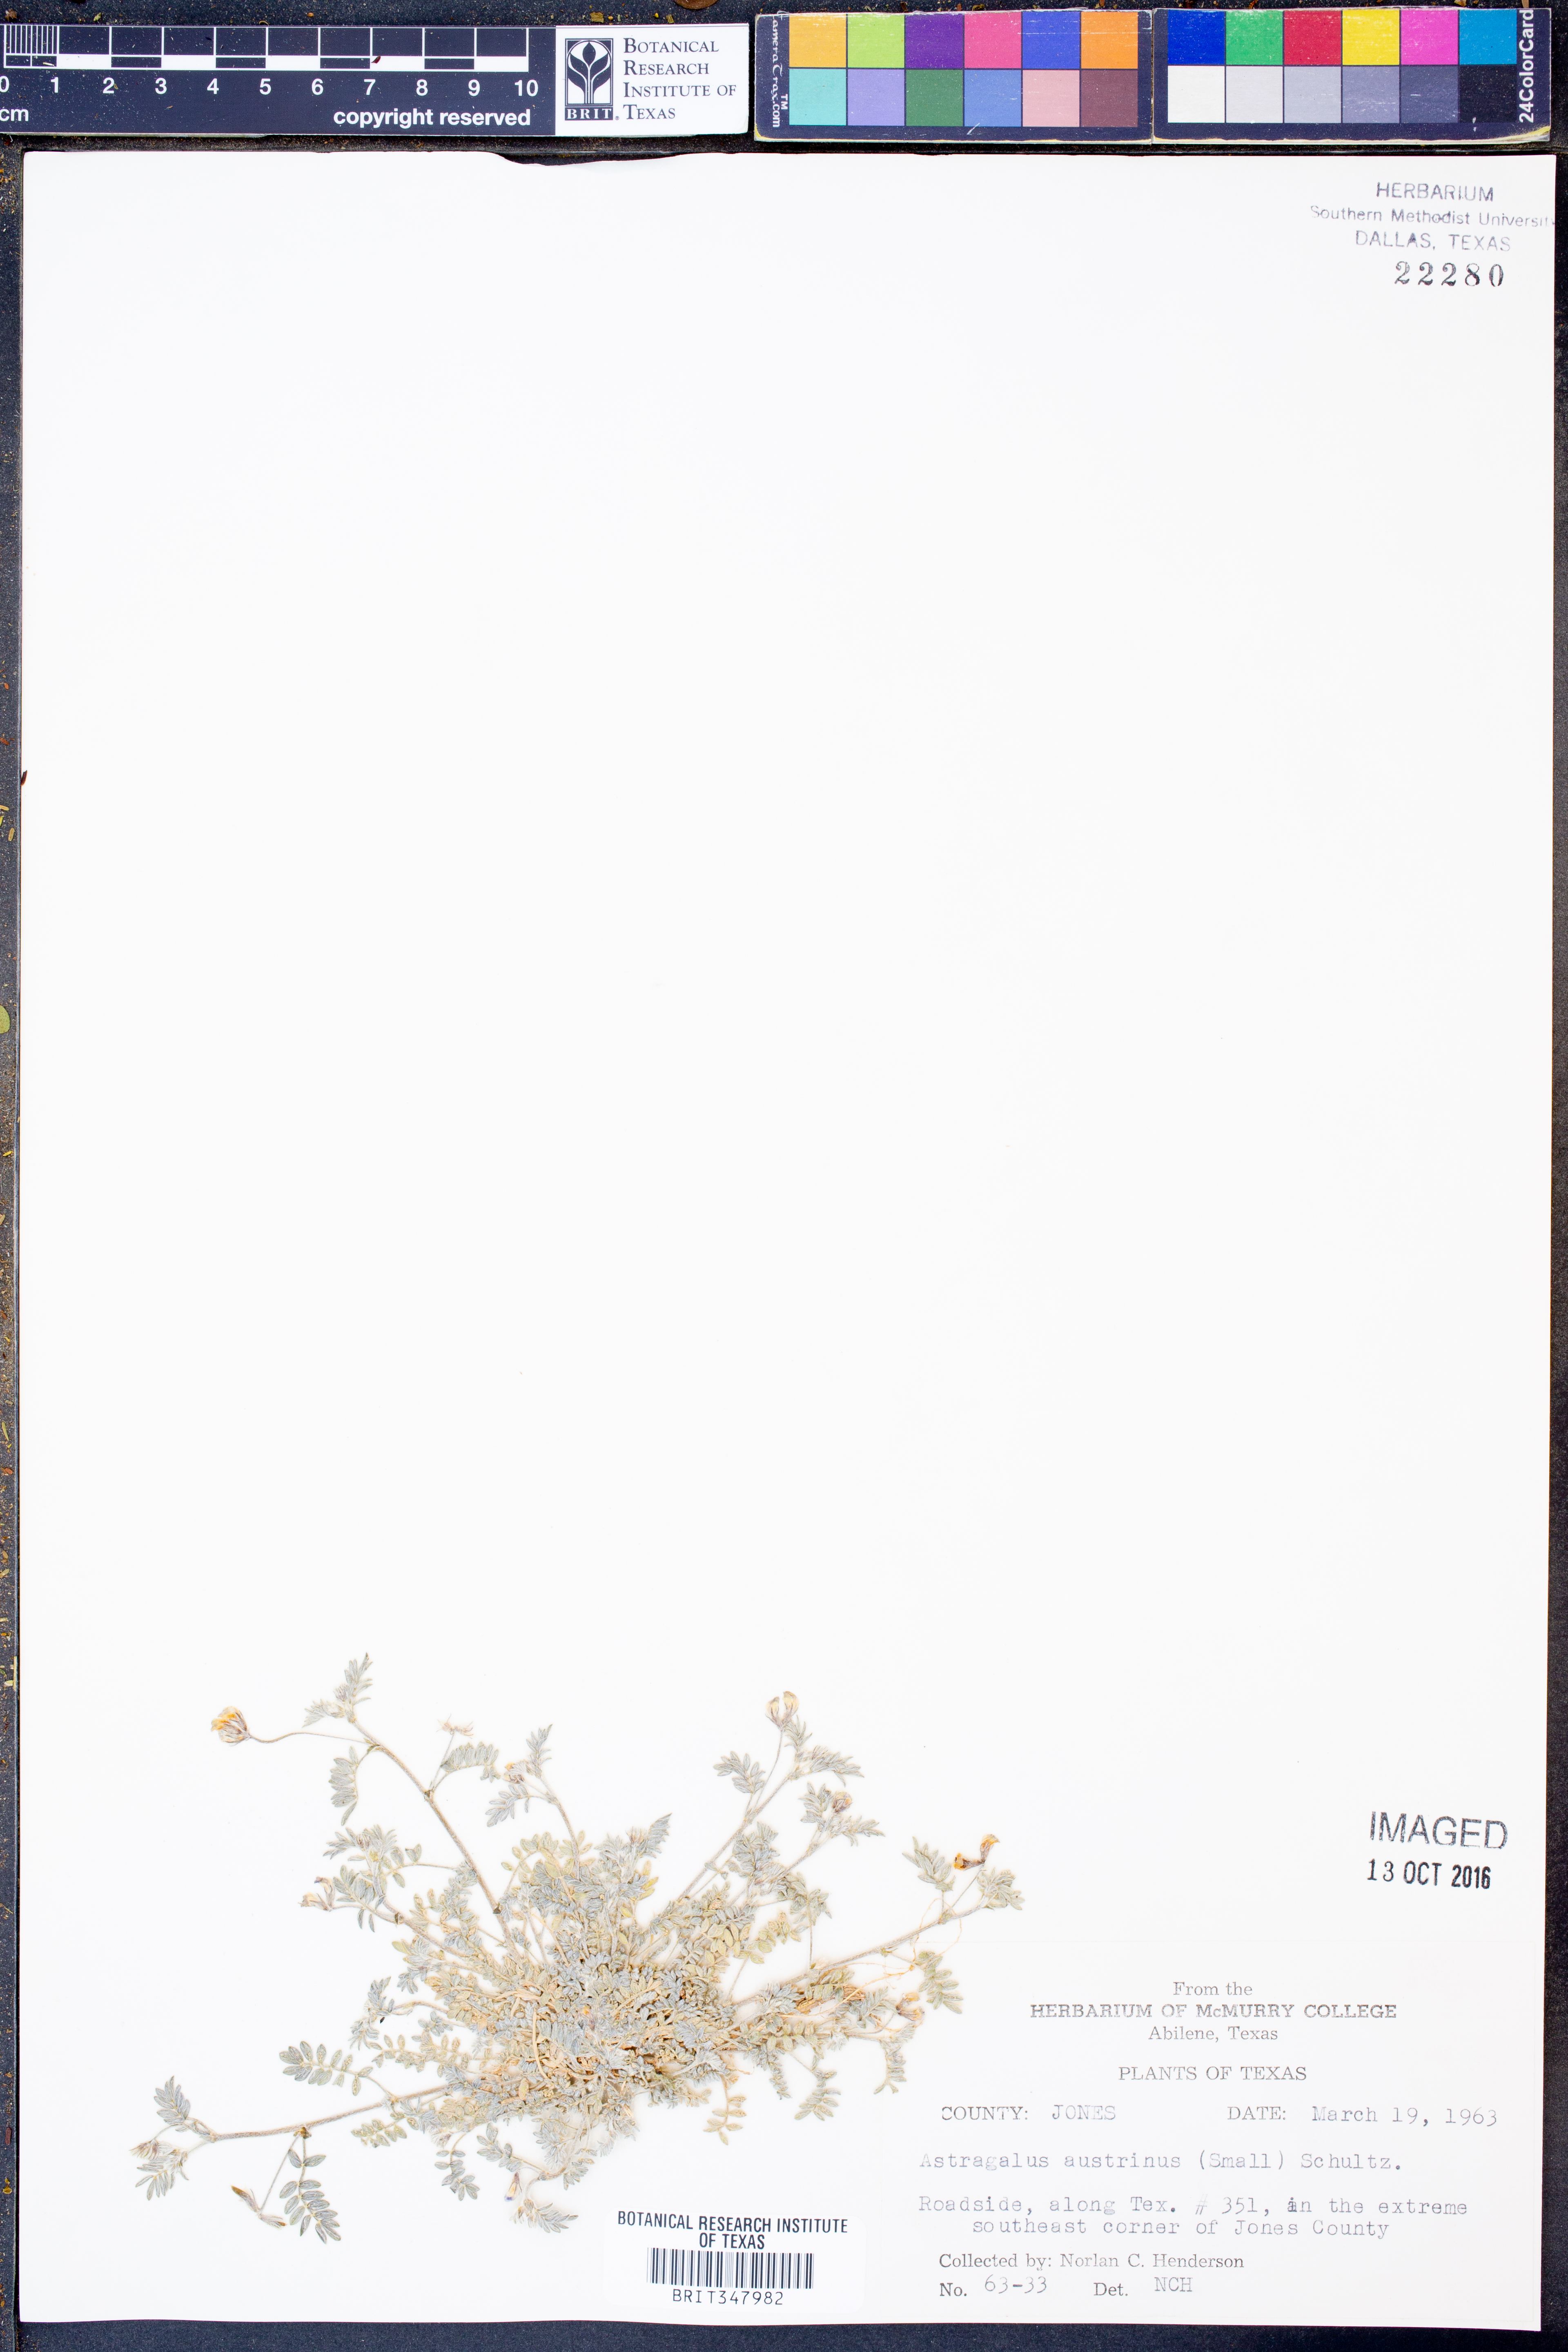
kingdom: Plantae
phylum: Tracheophyta
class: Magnoliopsida
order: Fabales
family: Fabaceae
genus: Astragalus
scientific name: Astragalus nuttallianus
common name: Smallflowered milkvetch
